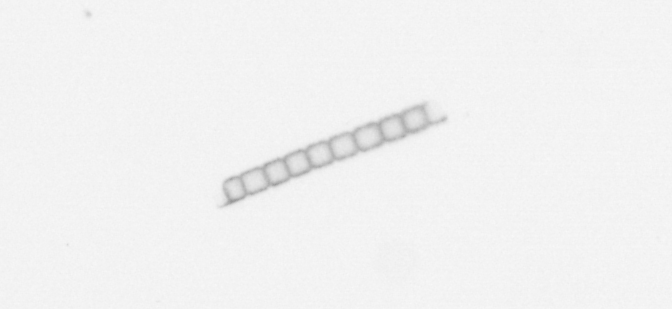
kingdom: Chromista
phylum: Ochrophyta
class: Bacillariophyceae
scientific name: Bacillariophyceae
